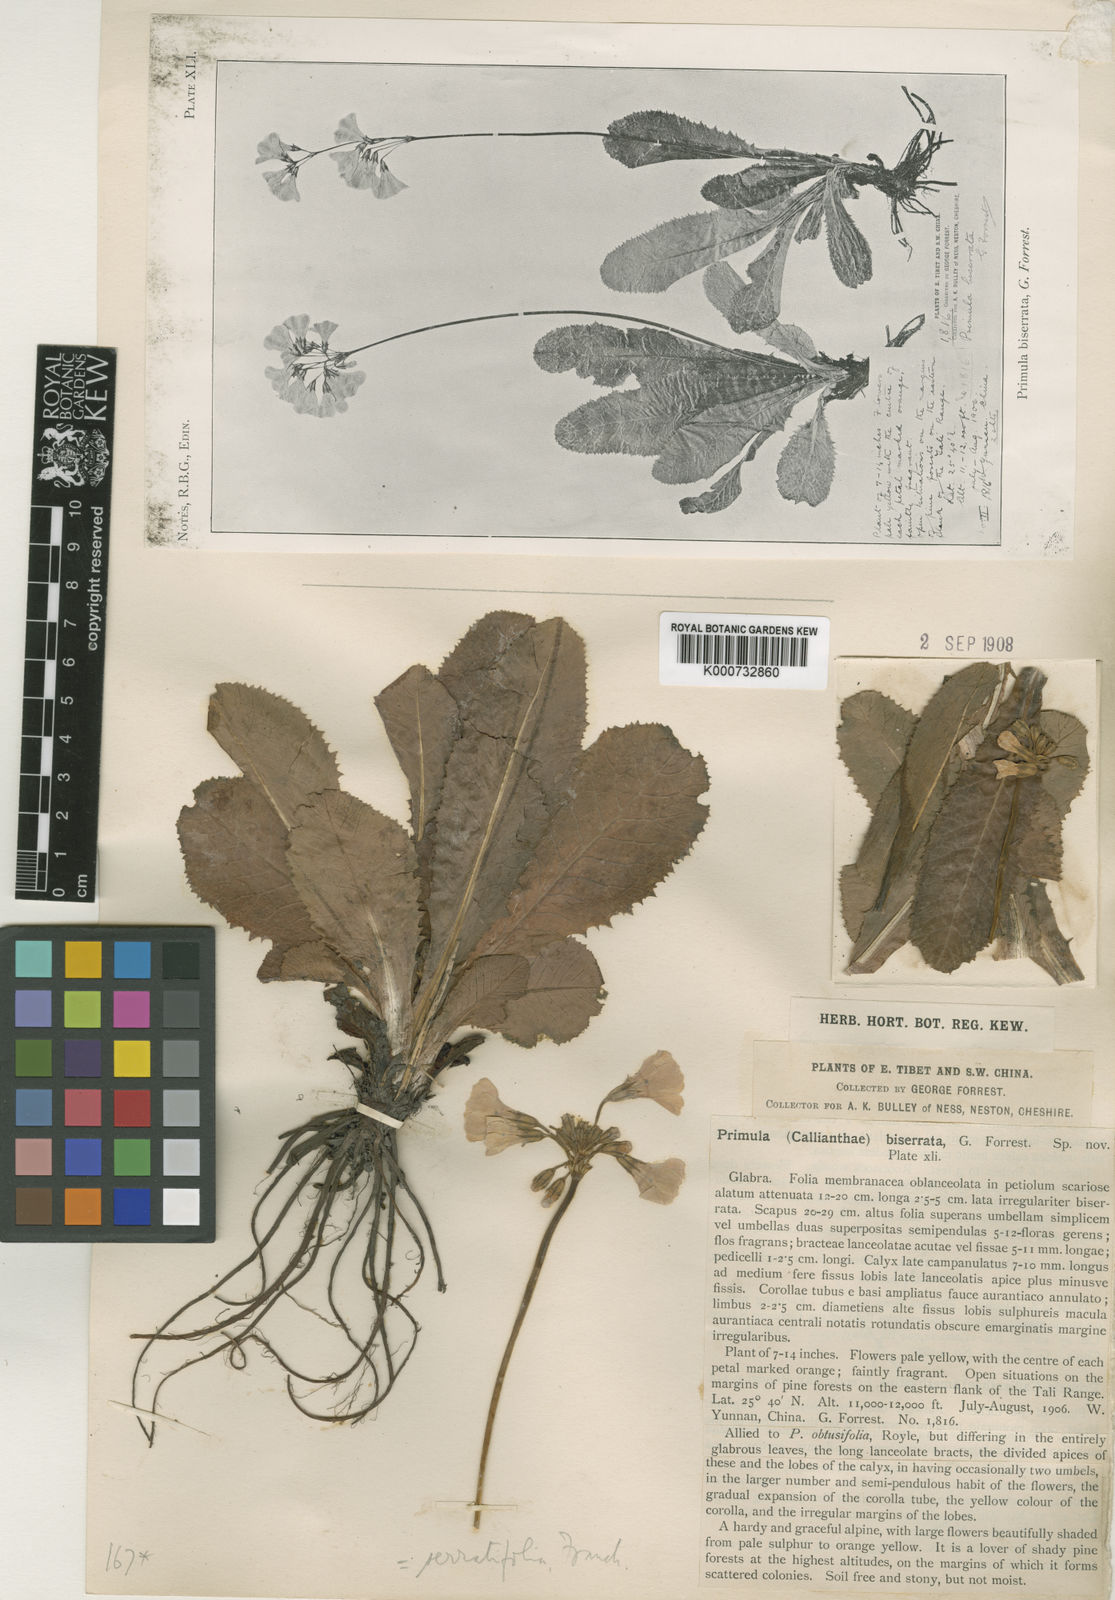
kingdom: Plantae
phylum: Tracheophyta
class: Magnoliopsida
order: Ericales
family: Primulaceae
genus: Primula
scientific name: Primula serratifolia
